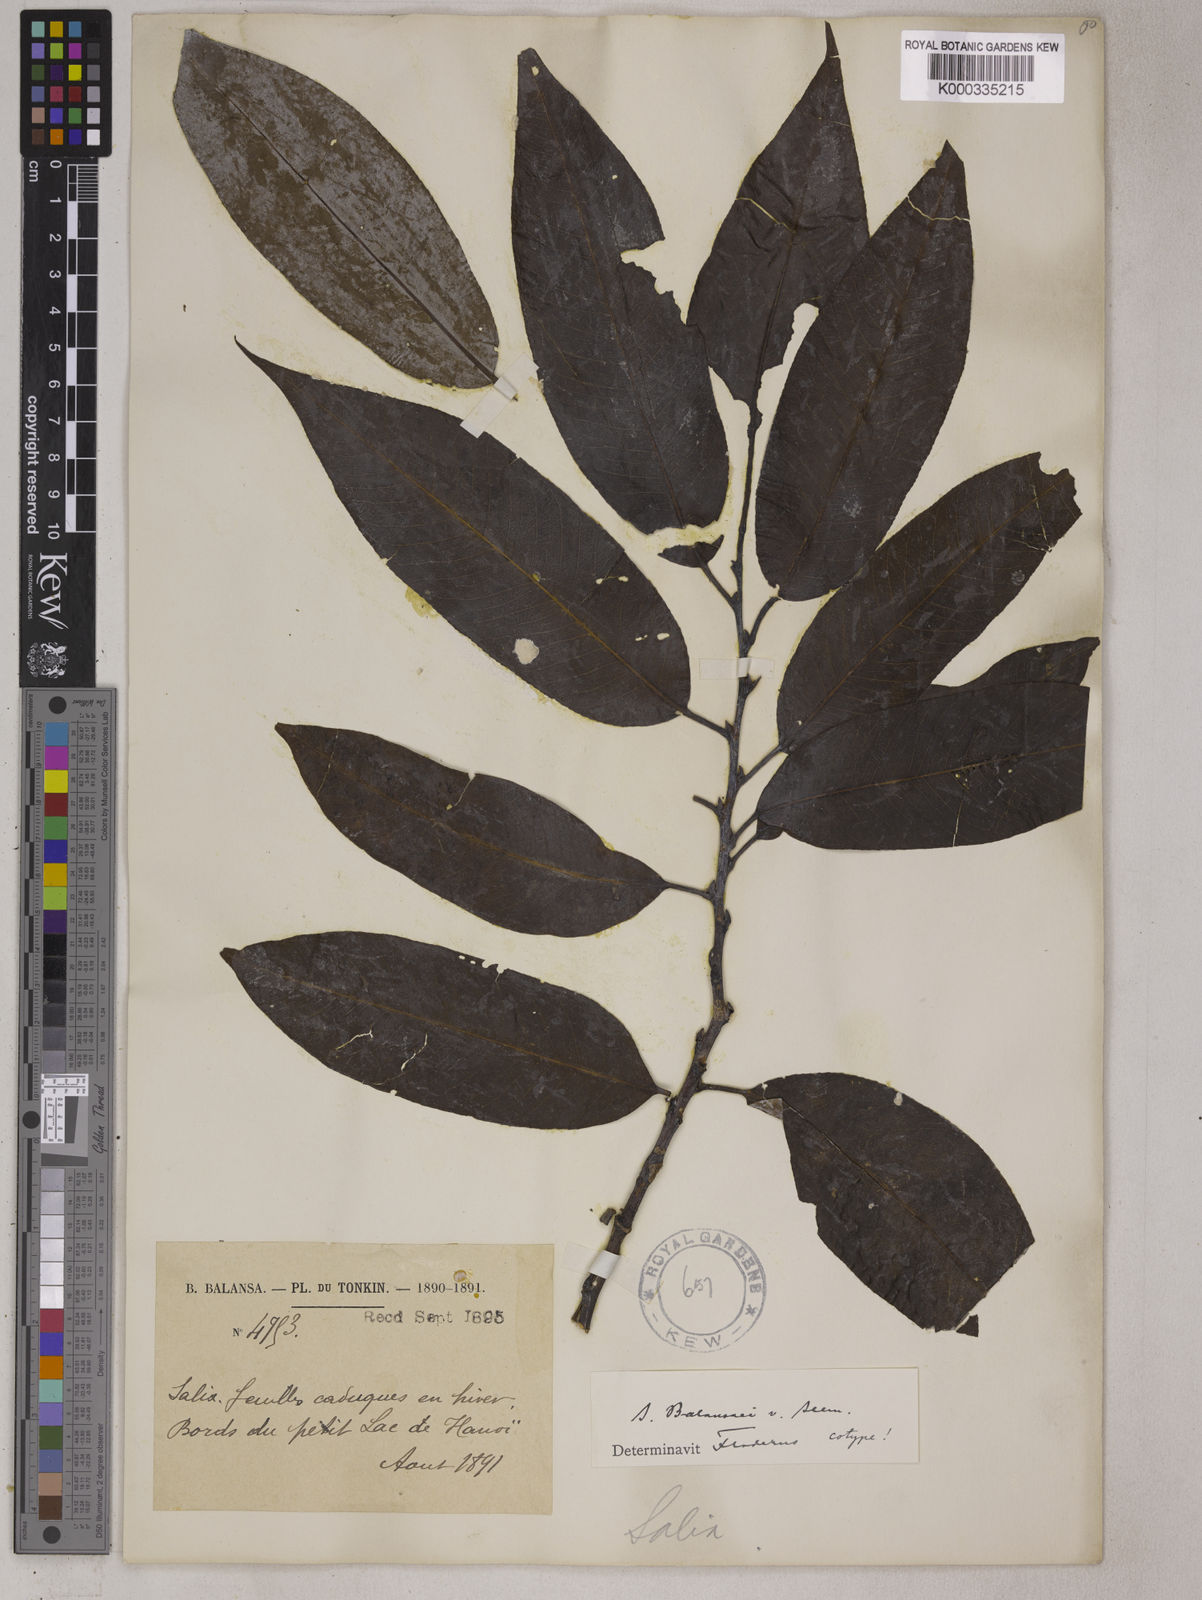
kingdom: Plantae
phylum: Tracheophyta
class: Magnoliopsida
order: Malpighiales
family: Salicaceae
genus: Salix
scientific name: Salix balansae
